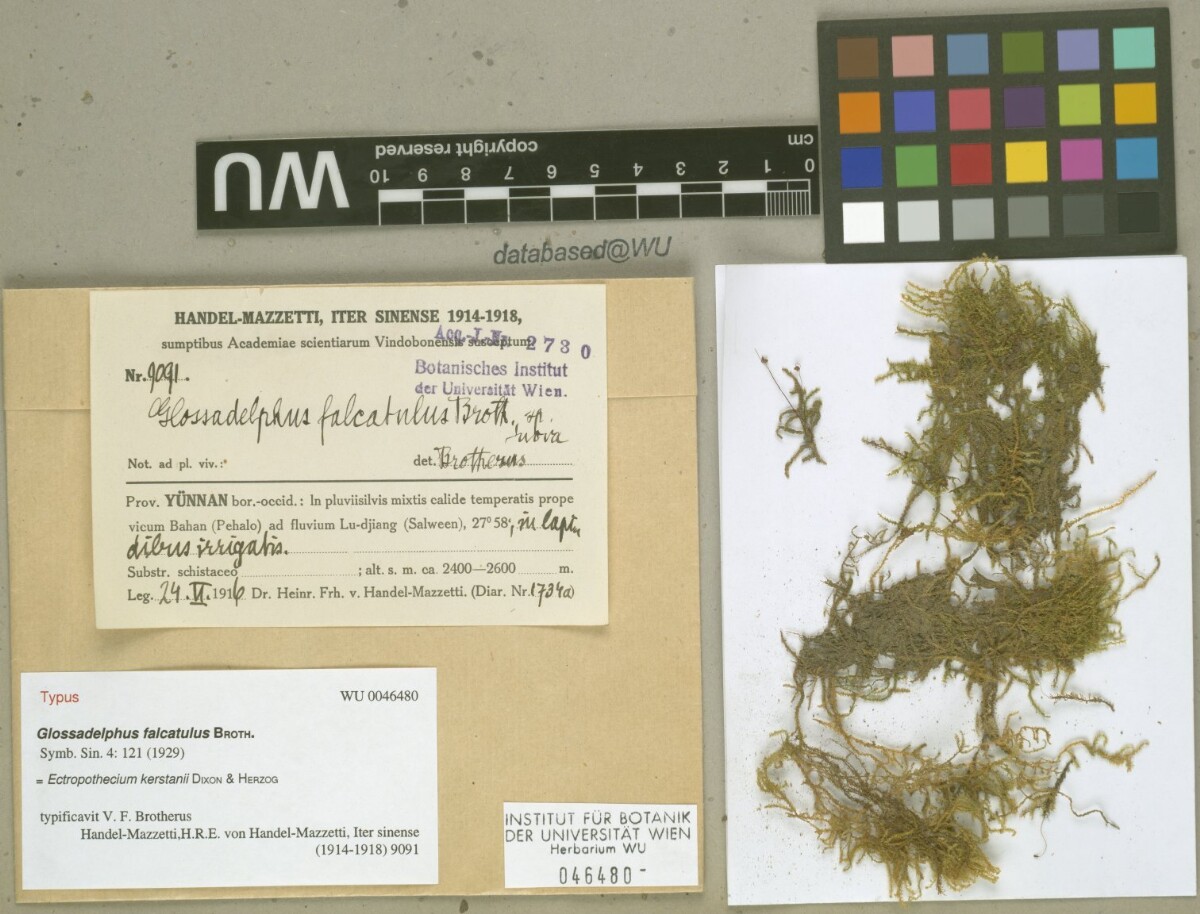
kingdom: Plantae
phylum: Bryophyta
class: Bryopsida
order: Hypnales
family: Hypnaceae
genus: Ectropothecium
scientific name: Ectropothecium falcatulum
